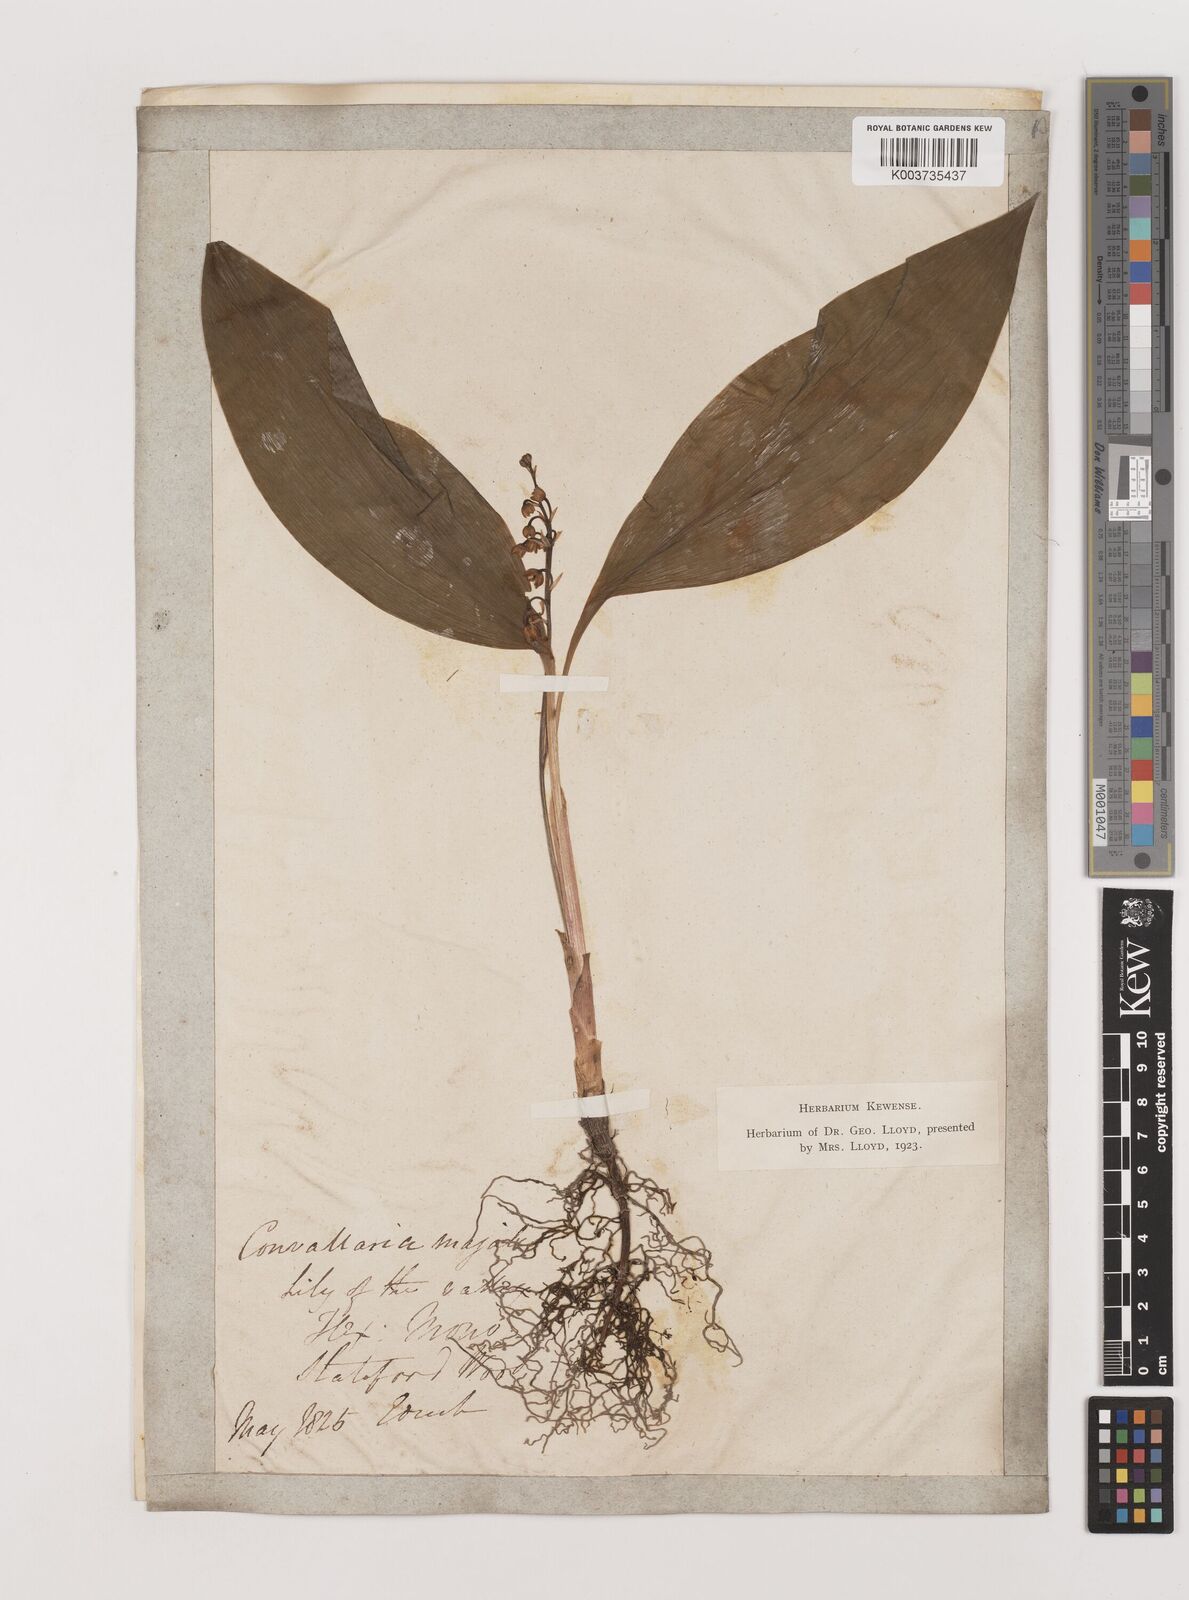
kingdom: Plantae
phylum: Tracheophyta
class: Liliopsida
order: Asparagales
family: Asparagaceae
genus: Convallaria
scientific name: Convallaria majalis
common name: Lily-of-the-valley
